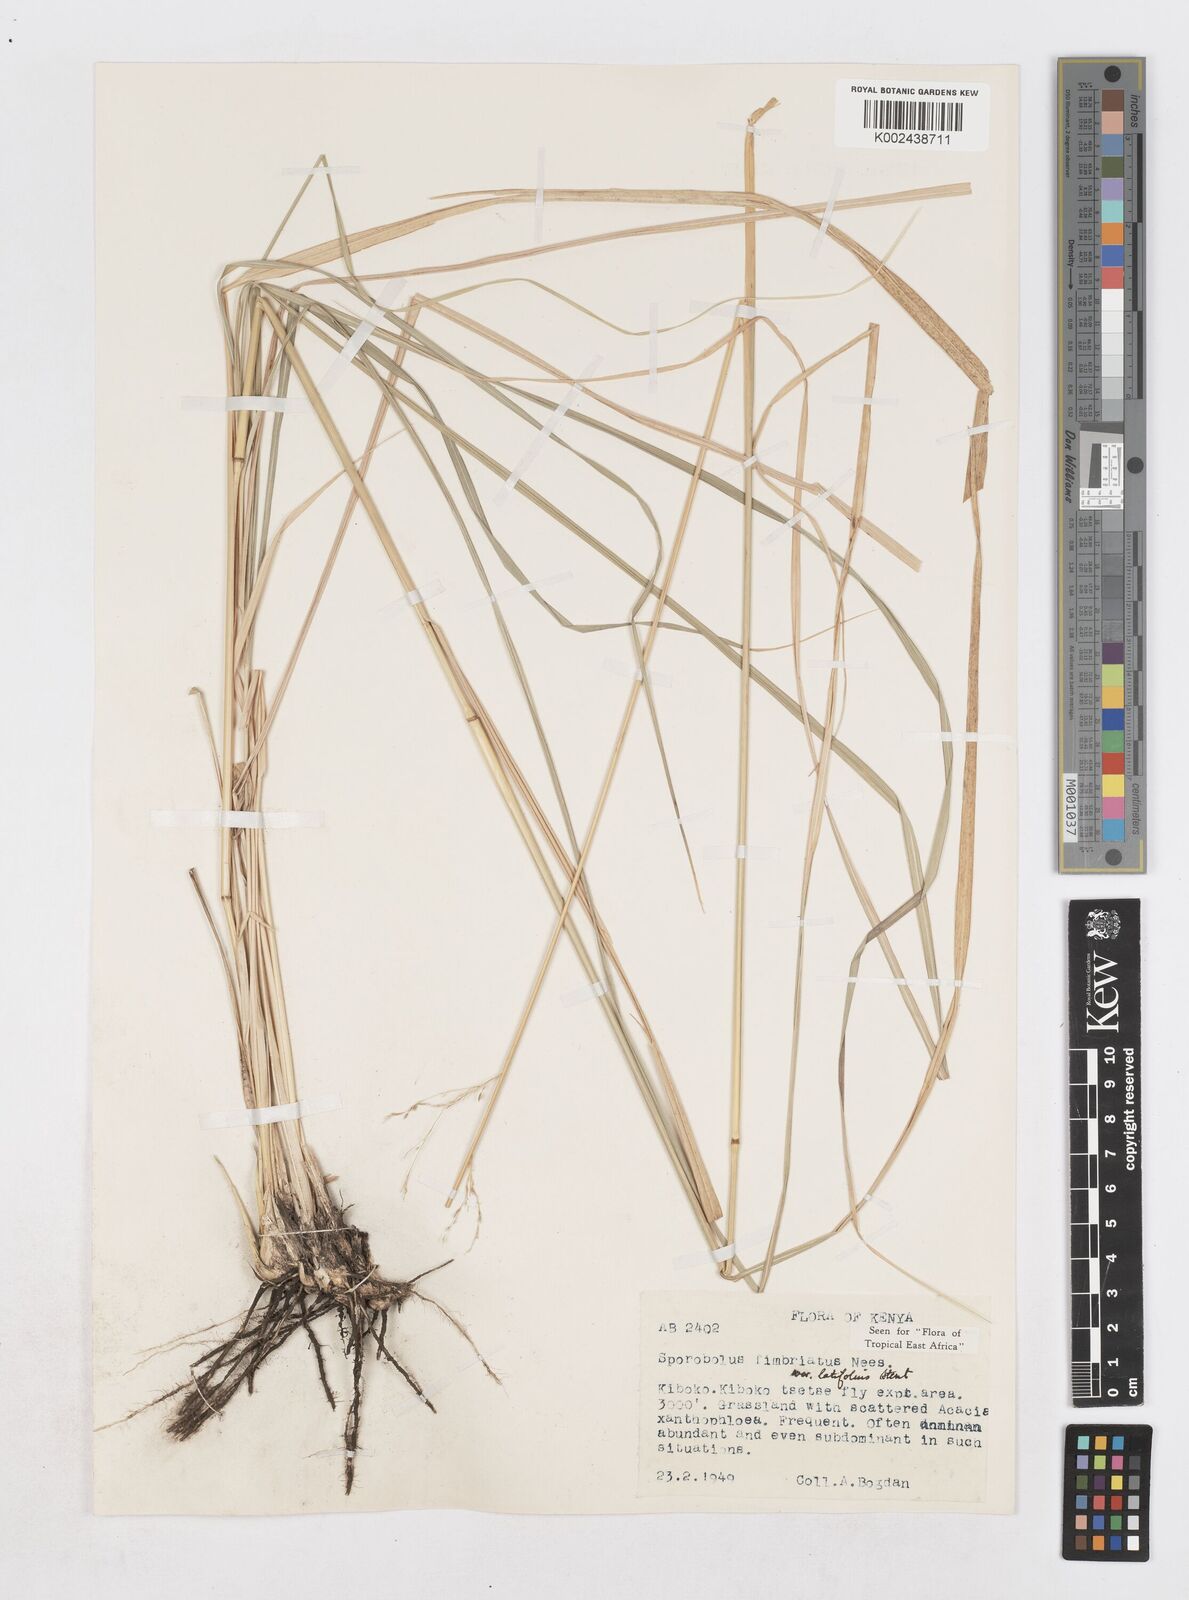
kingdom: Plantae
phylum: Tracheophyta
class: Liliopsida
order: Poales
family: Poaceae
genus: Sporobolus
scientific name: Sporobolus fimbriatus
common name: Fringed dropseed
